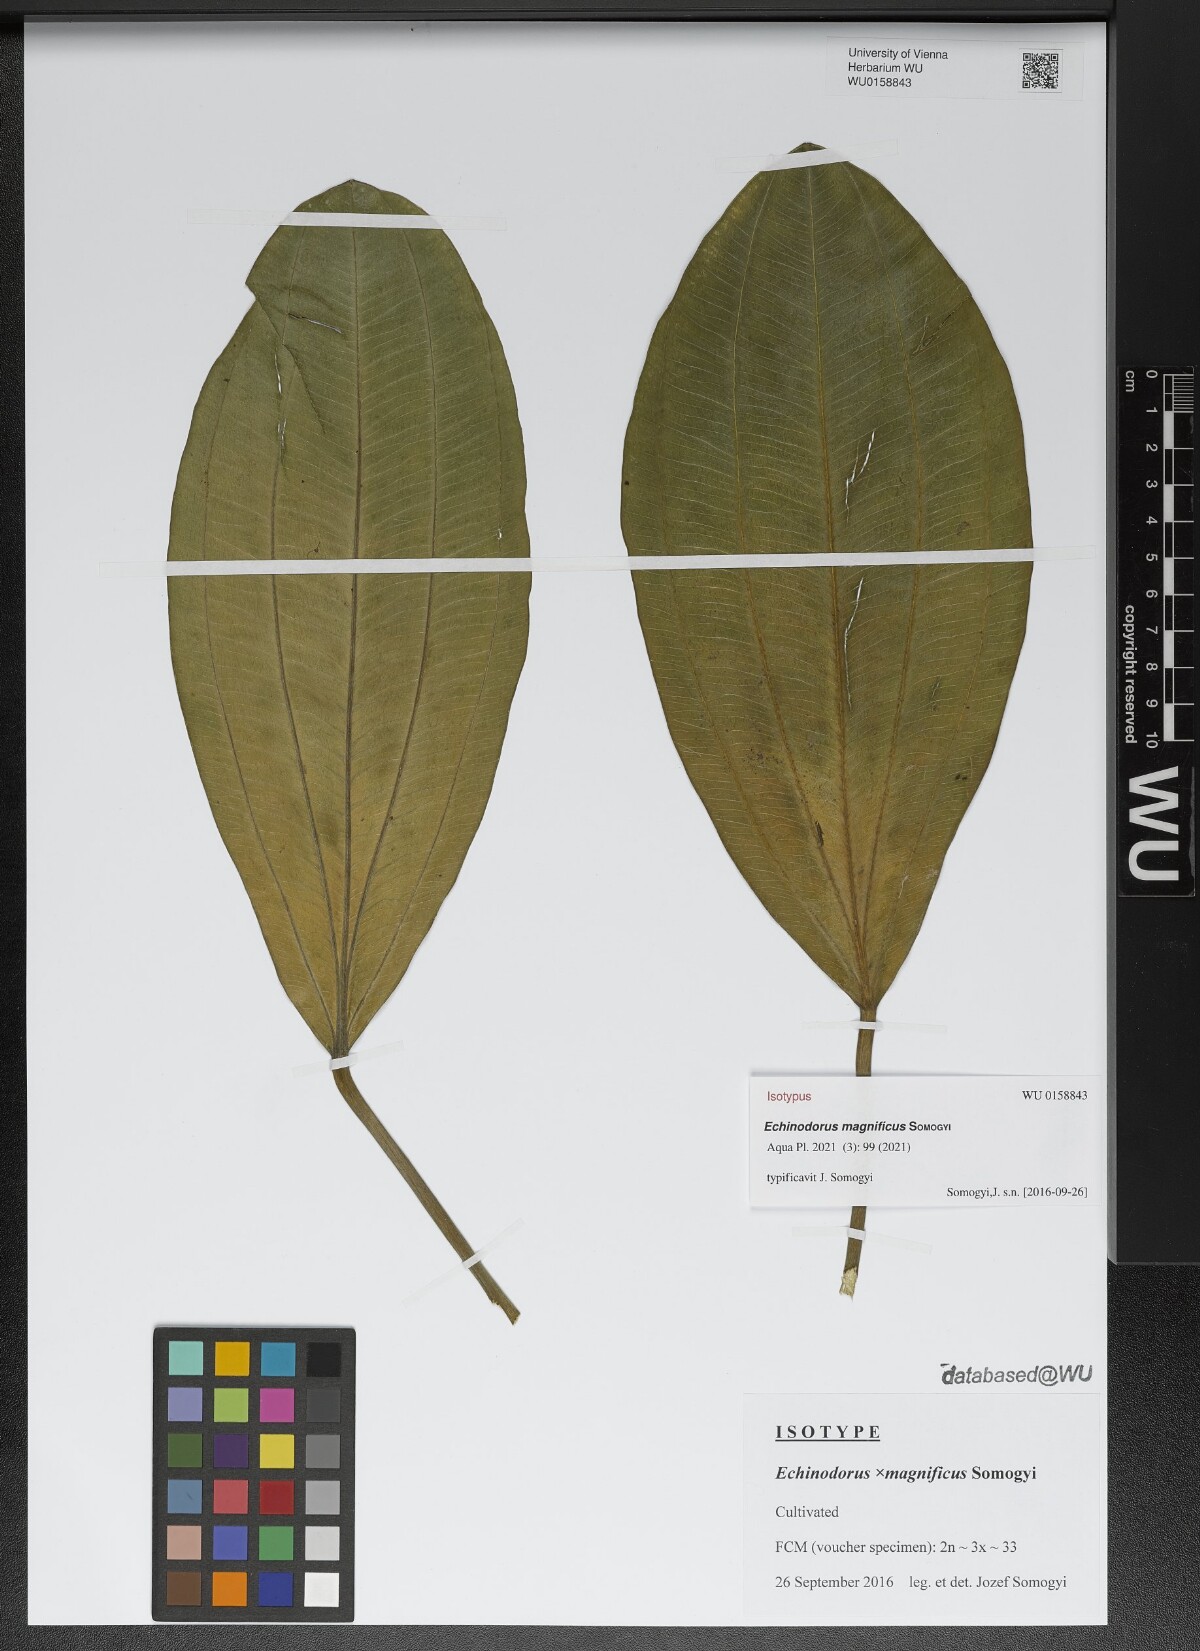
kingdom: Plantae
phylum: Tracheophyta
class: Liliopsida
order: Alismatales
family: Alismataceae
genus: Echinodorus
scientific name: Echinodorus
